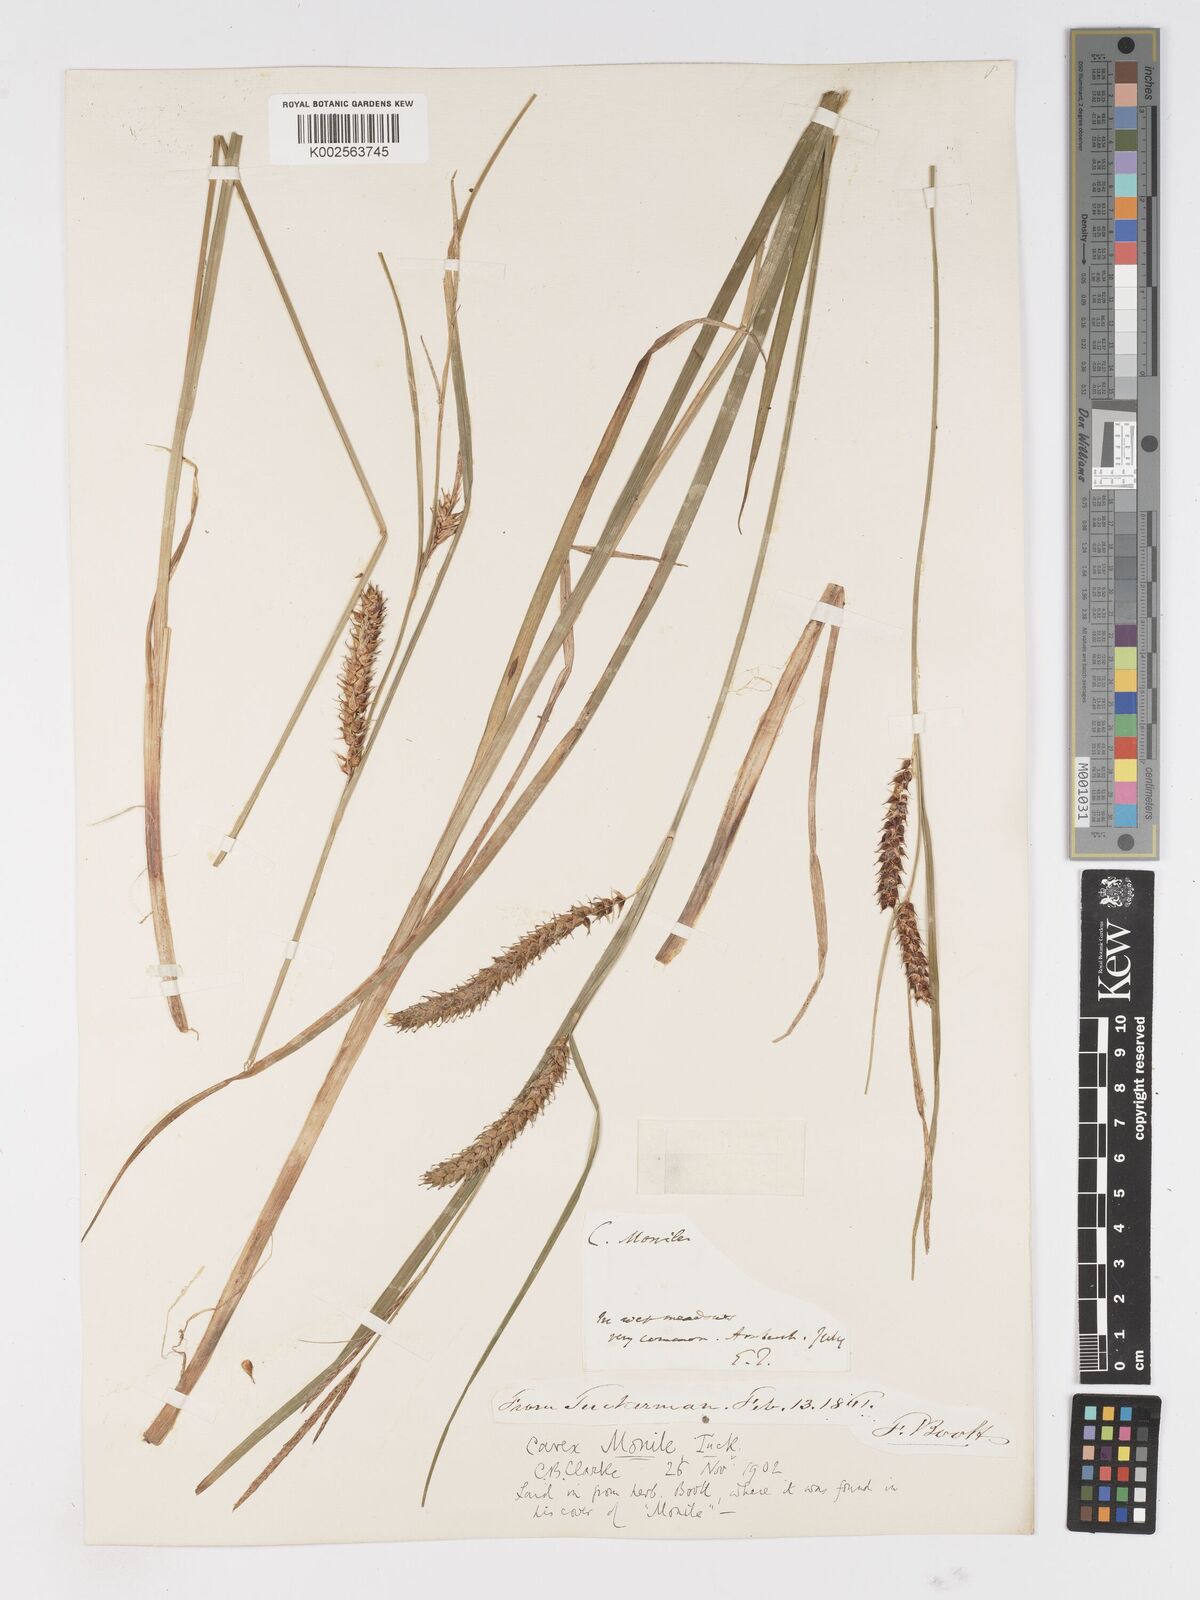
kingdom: Plantae
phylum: Tracheophyta
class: Liliopsida
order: Poales
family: Cyperaceae
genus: Carex
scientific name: Carex vesicaria
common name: Bladder-sedge
